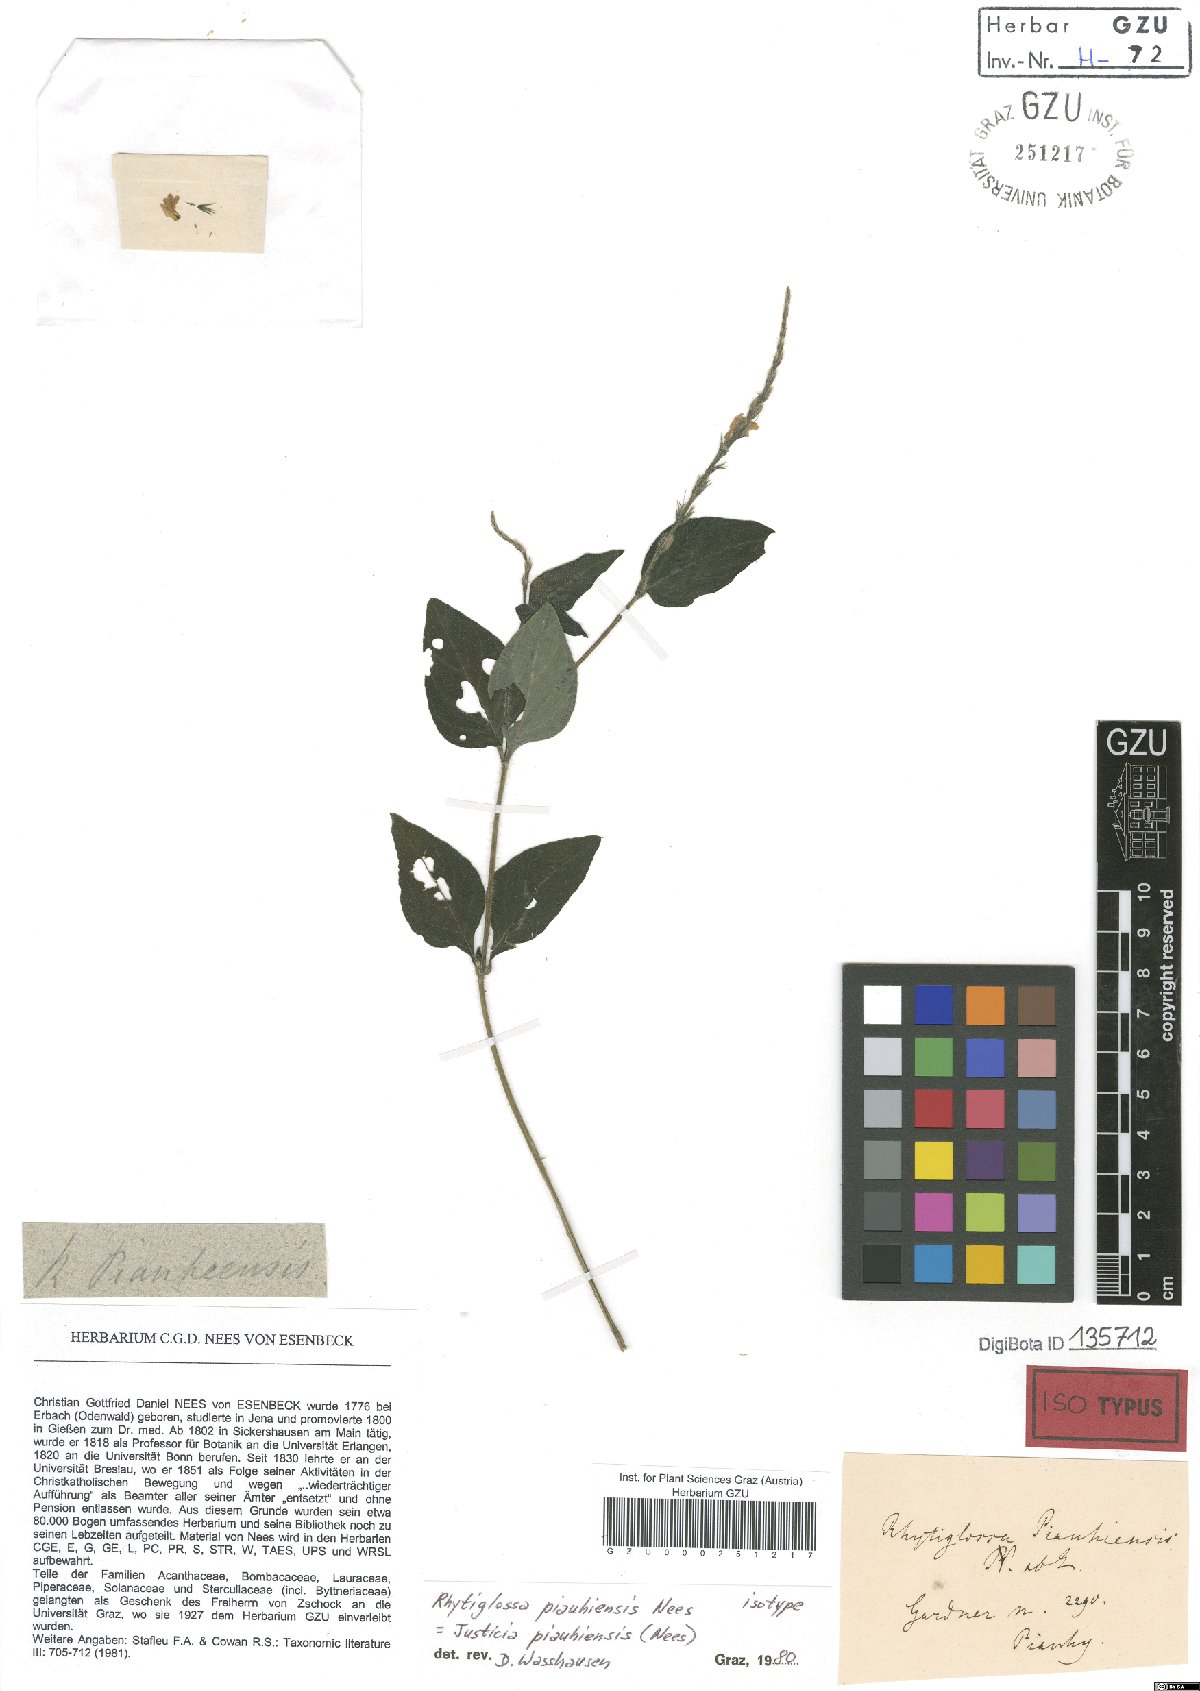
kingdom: Plantae
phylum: Tracheophyta
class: Magnoliopsida
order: Lamiales
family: Acanthaceae
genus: Justicia
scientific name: Justicia piauhiensis
